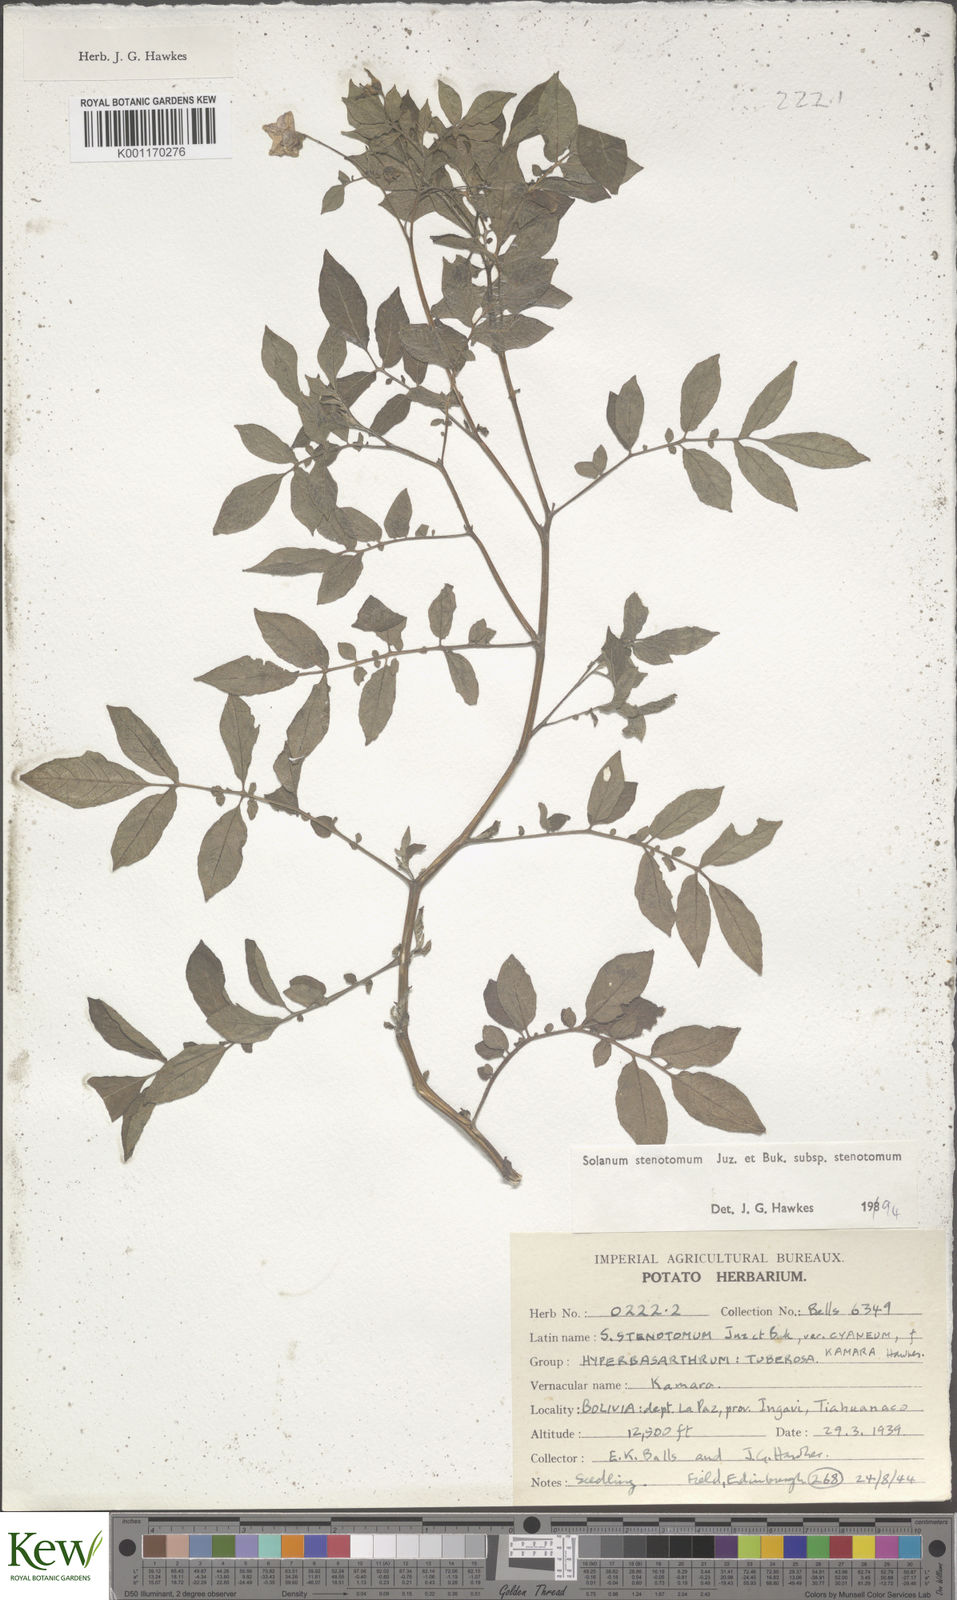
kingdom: Plantae
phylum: Tracheophyta
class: Magnoliopsida
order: Solanales
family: Solanaceae
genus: Solanum
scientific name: Solanum tuberosum
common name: Potato
